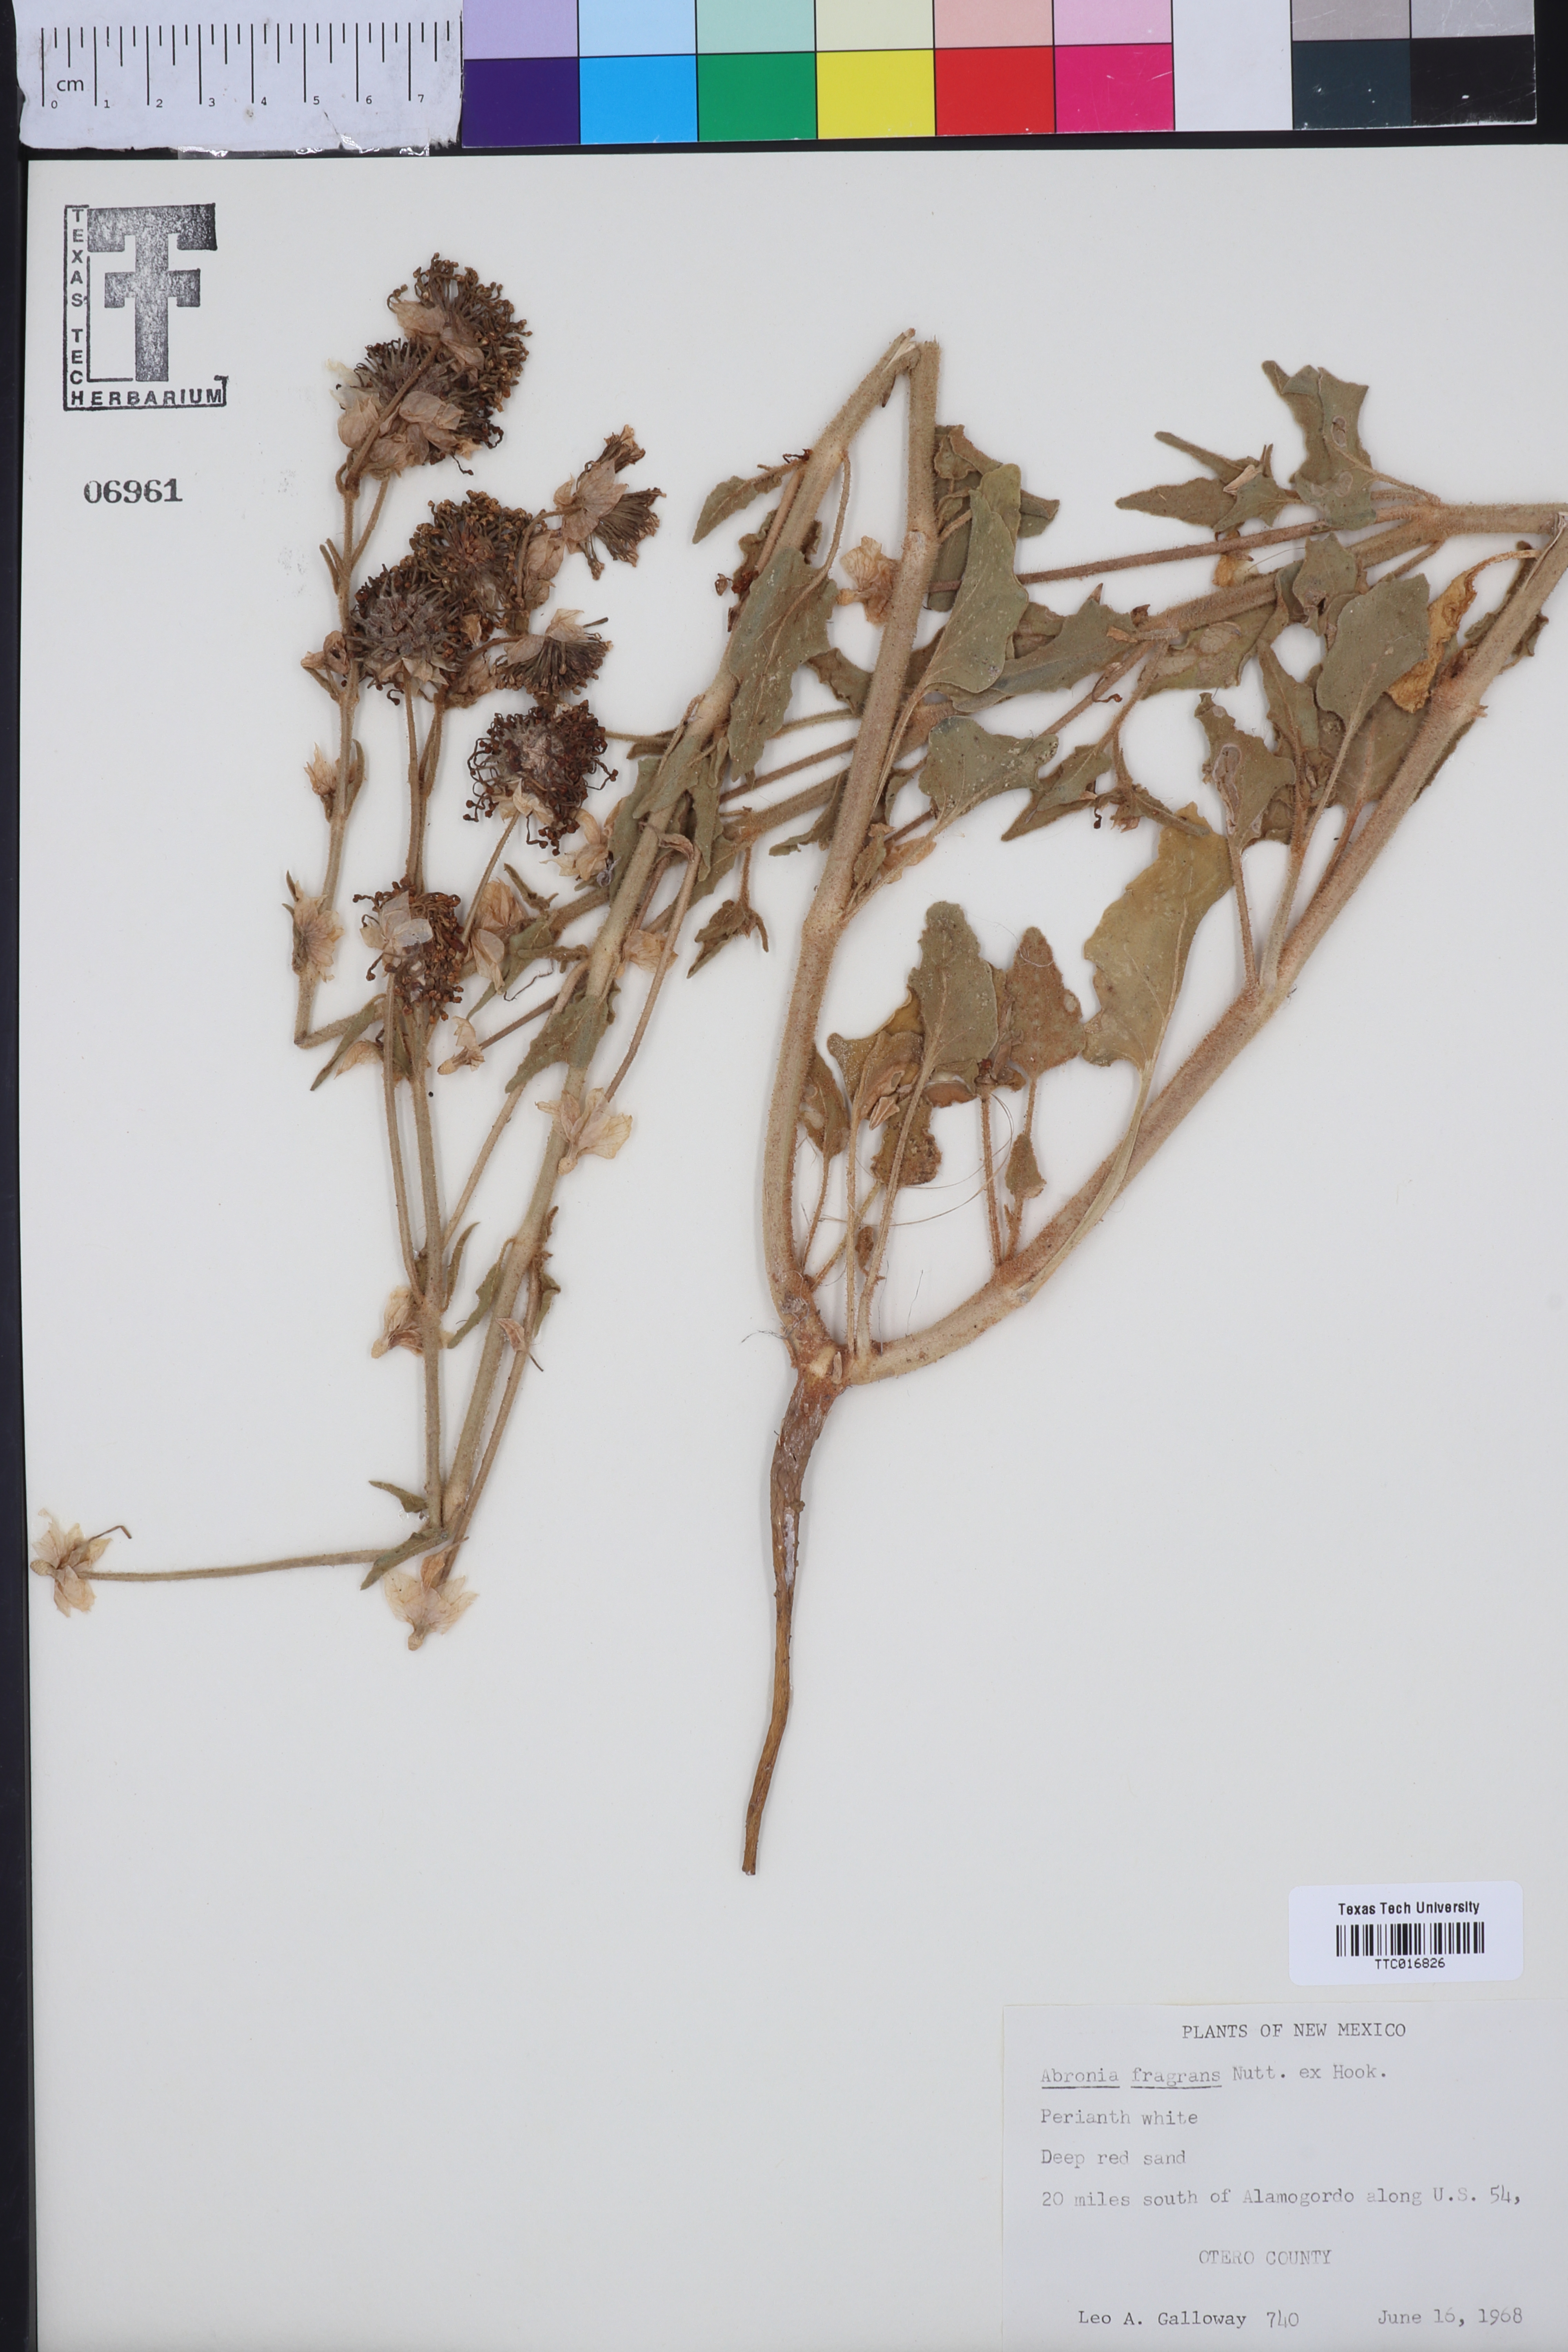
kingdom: Plantae
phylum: Tracheophyta
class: Magnoliopsida
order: Caryophyllales
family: Nyctaginaceae
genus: Abronia
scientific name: Abronia fragrans
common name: Fragrant sand-verbena
